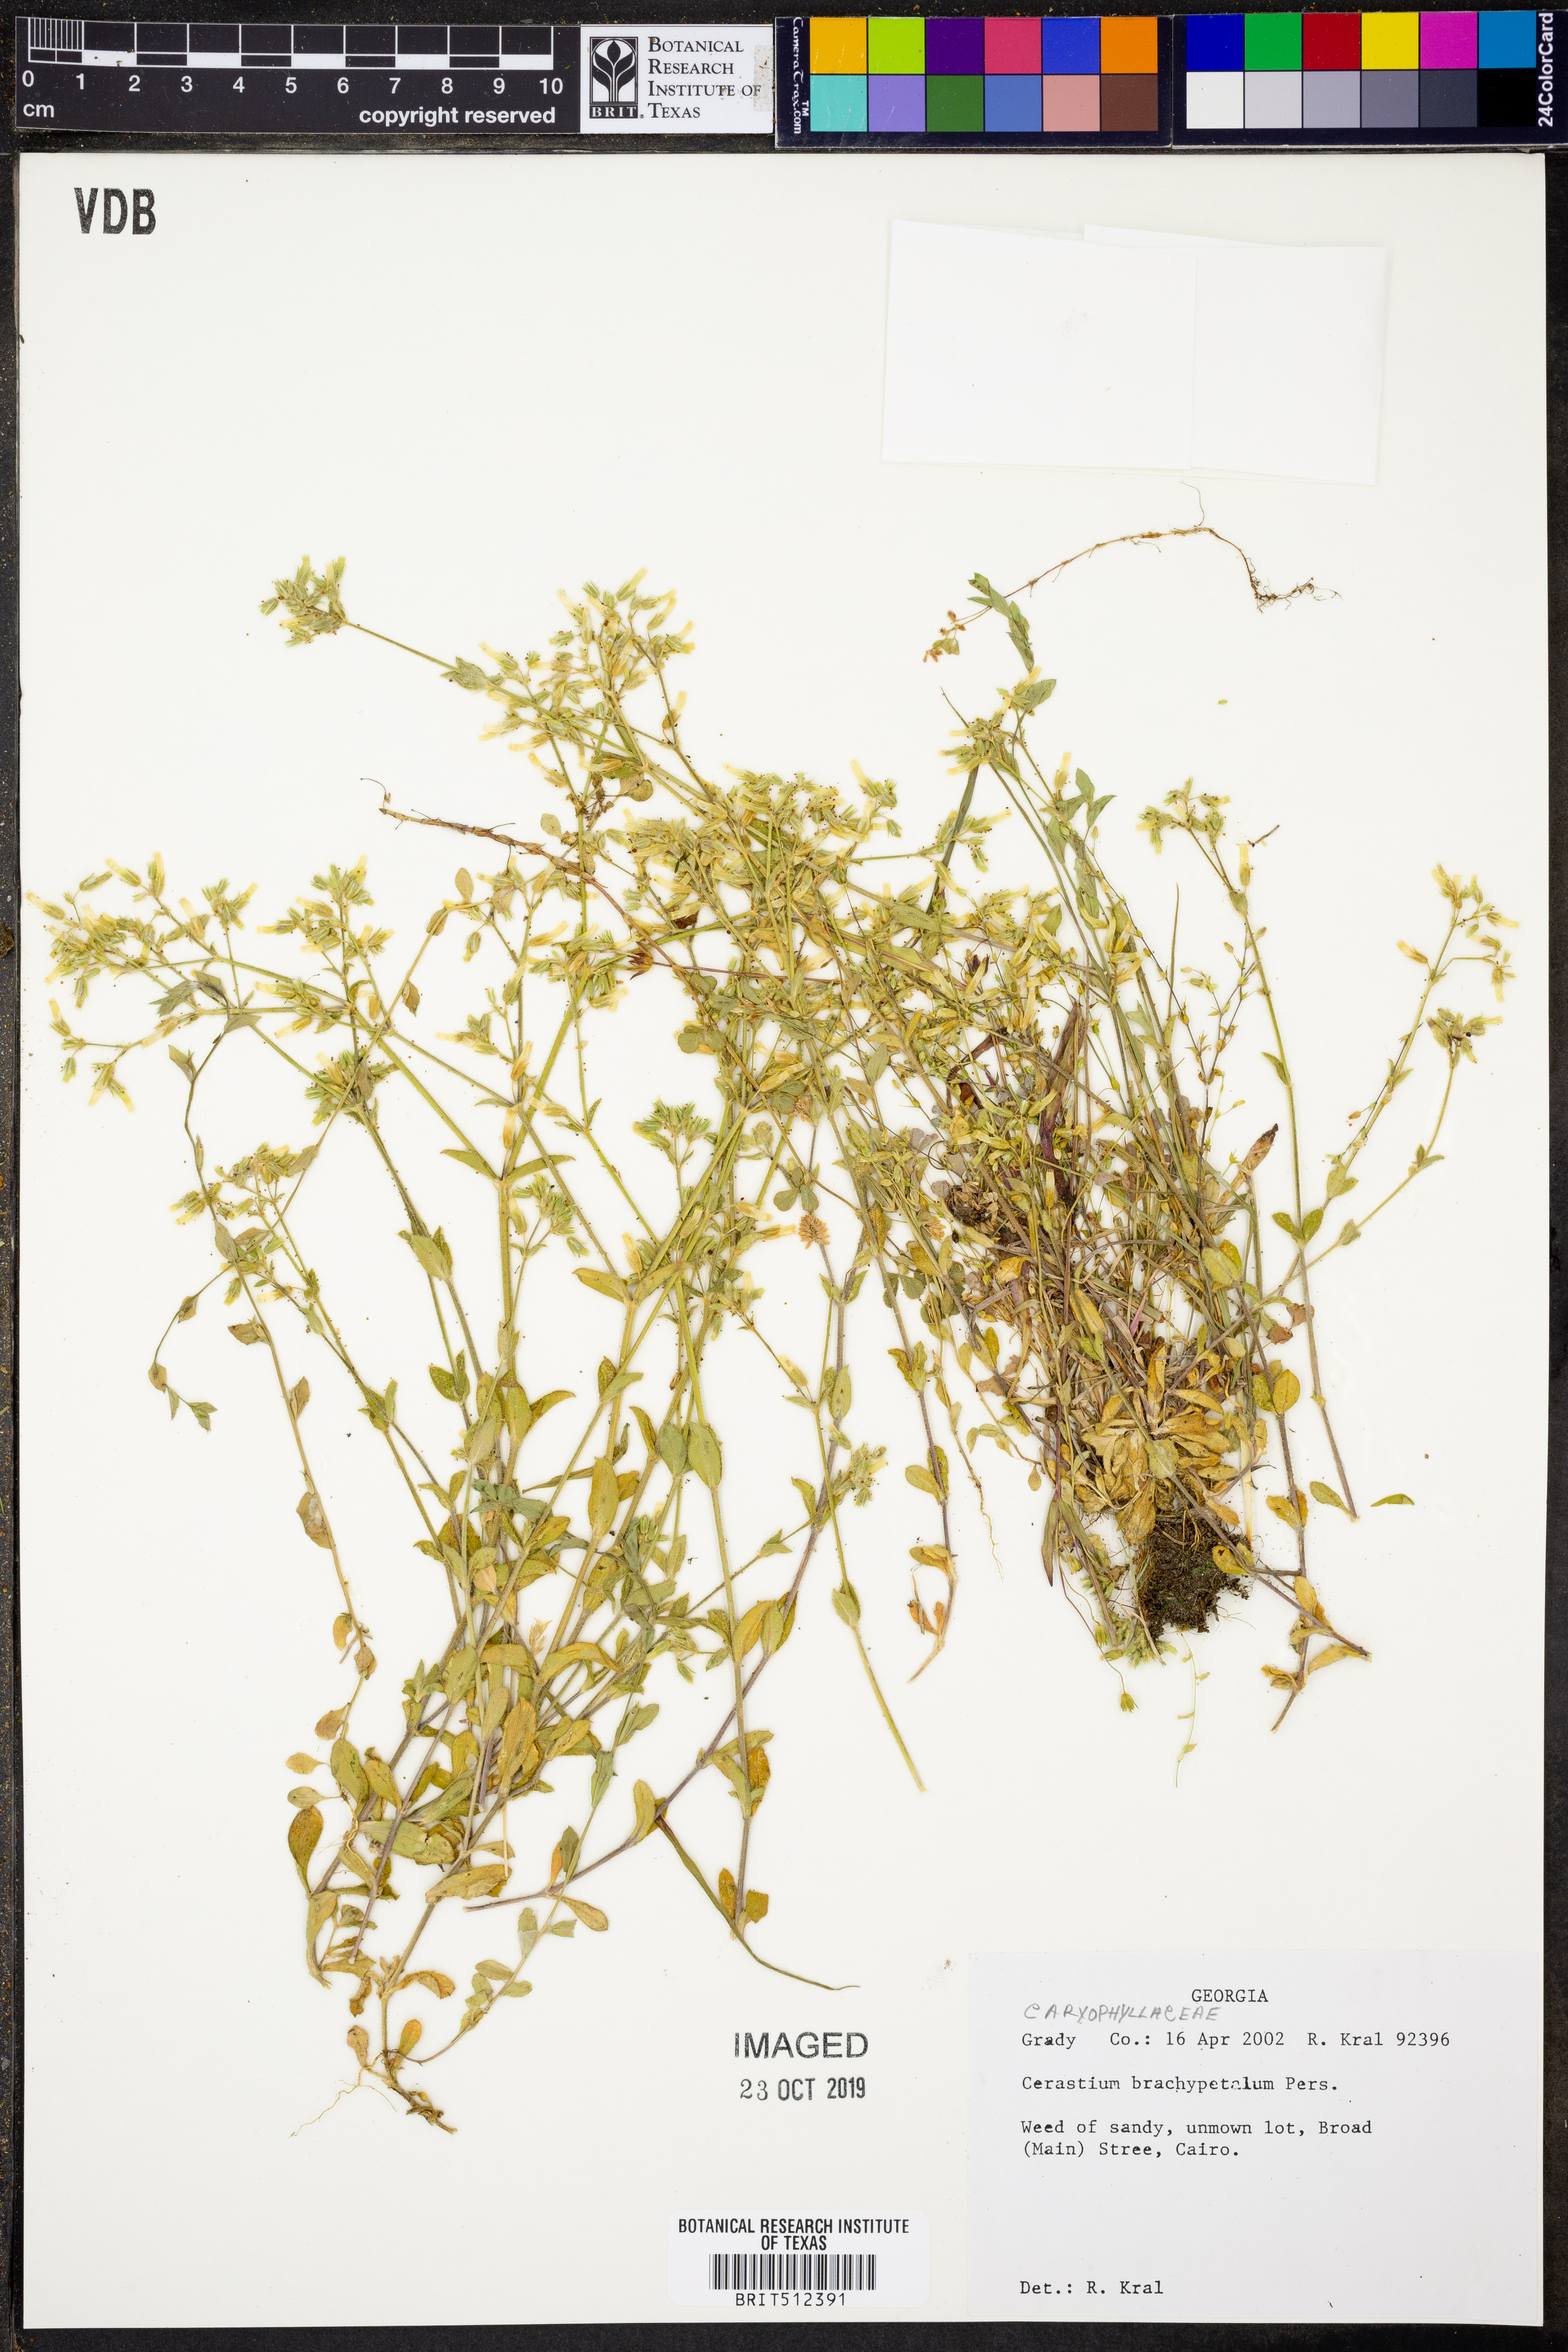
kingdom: Plantae
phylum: Tracheophyta
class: Magnoliopsida
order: Caryophyllales
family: Caryophyllaceae
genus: Cerastium
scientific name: Cerastium brachypetalum
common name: Grey mouse-ear
